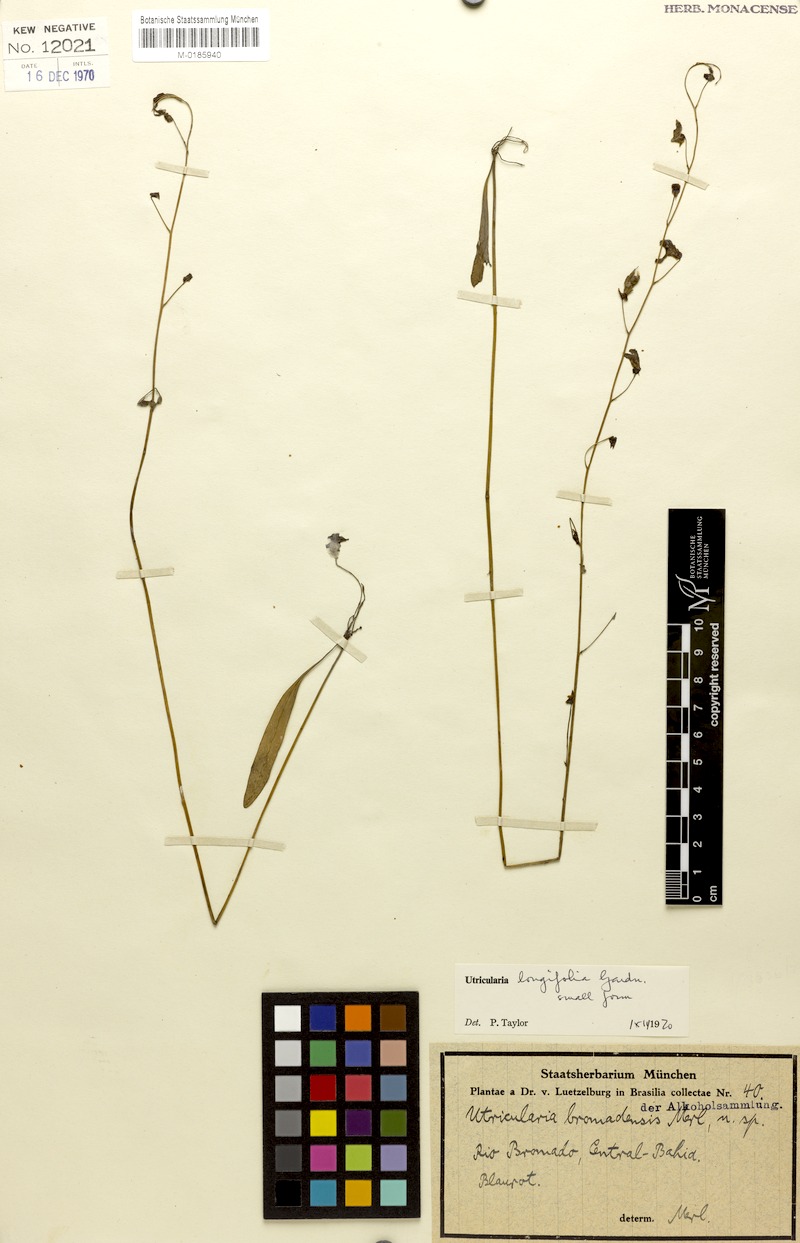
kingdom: Plantae
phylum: Tracheophyta
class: Magnoliopsida
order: Lamiales
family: Lentibulariaceae
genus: Utricularia
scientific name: Utricularia longifolia
